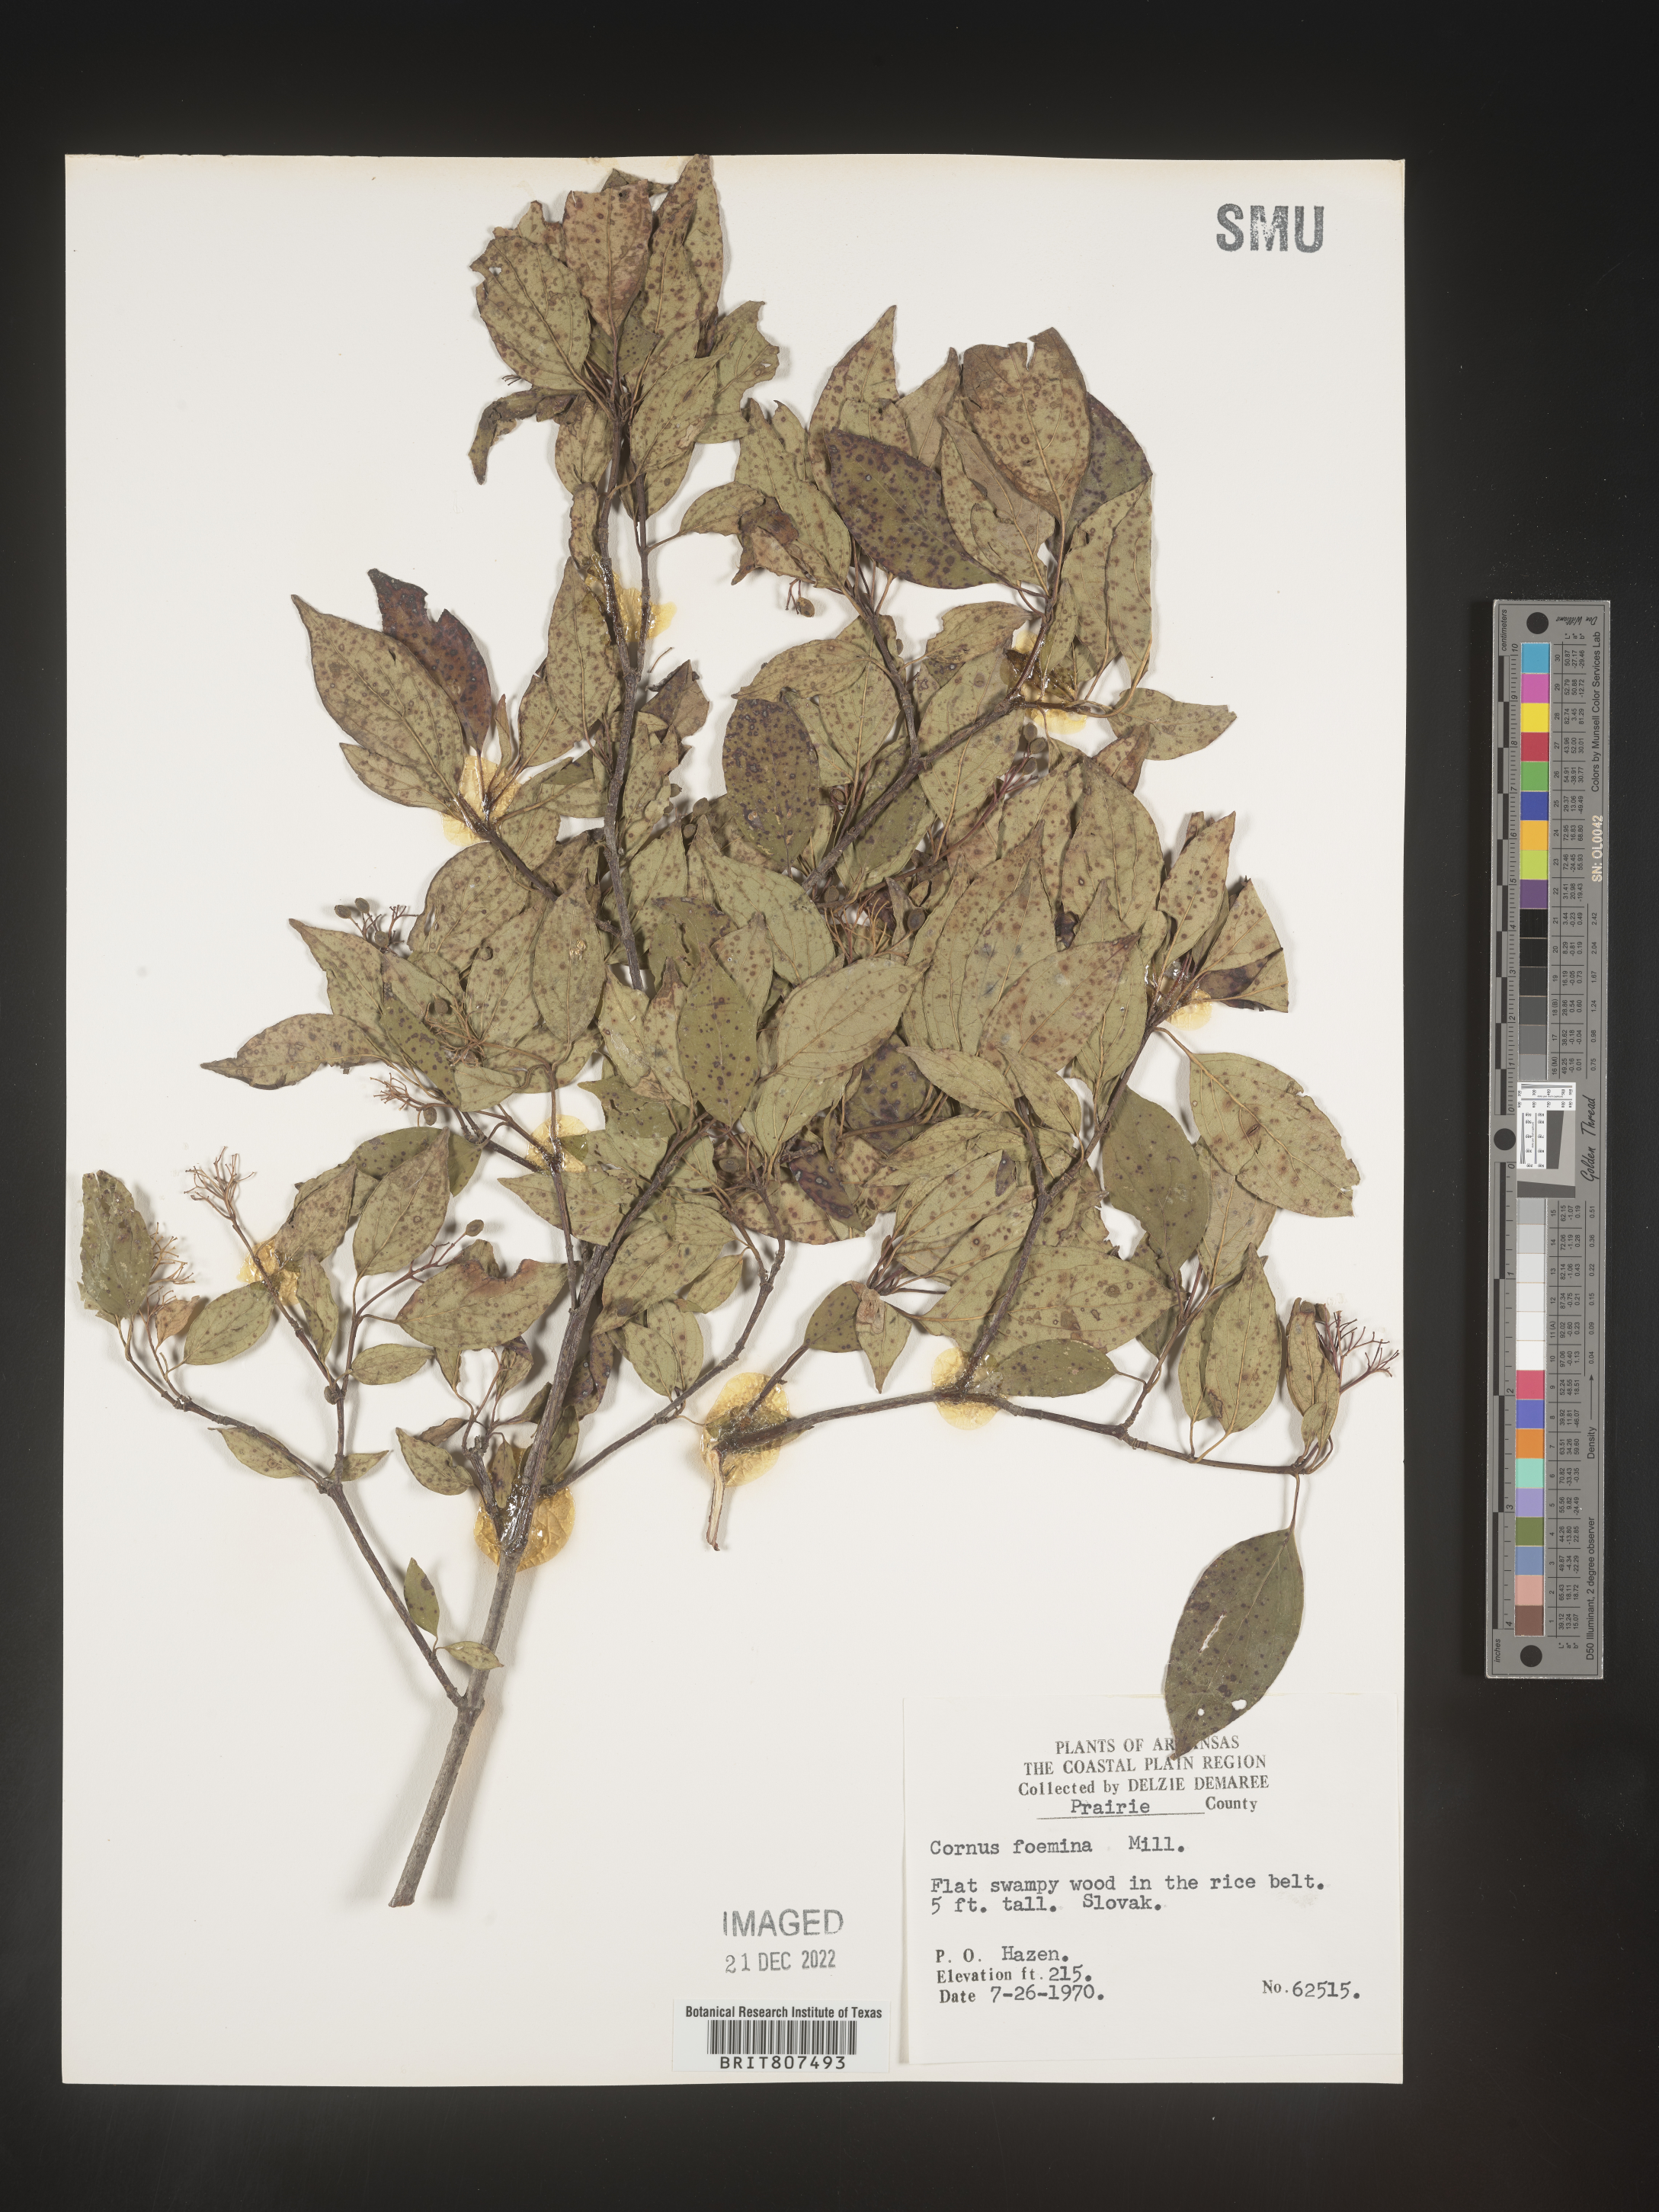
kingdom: Plantae
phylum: Tracheophyta
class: Magnoliopsida
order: Cornales
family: Cornaceae
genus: Cornus
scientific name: Cornus foemina
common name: Swamp dogwood
